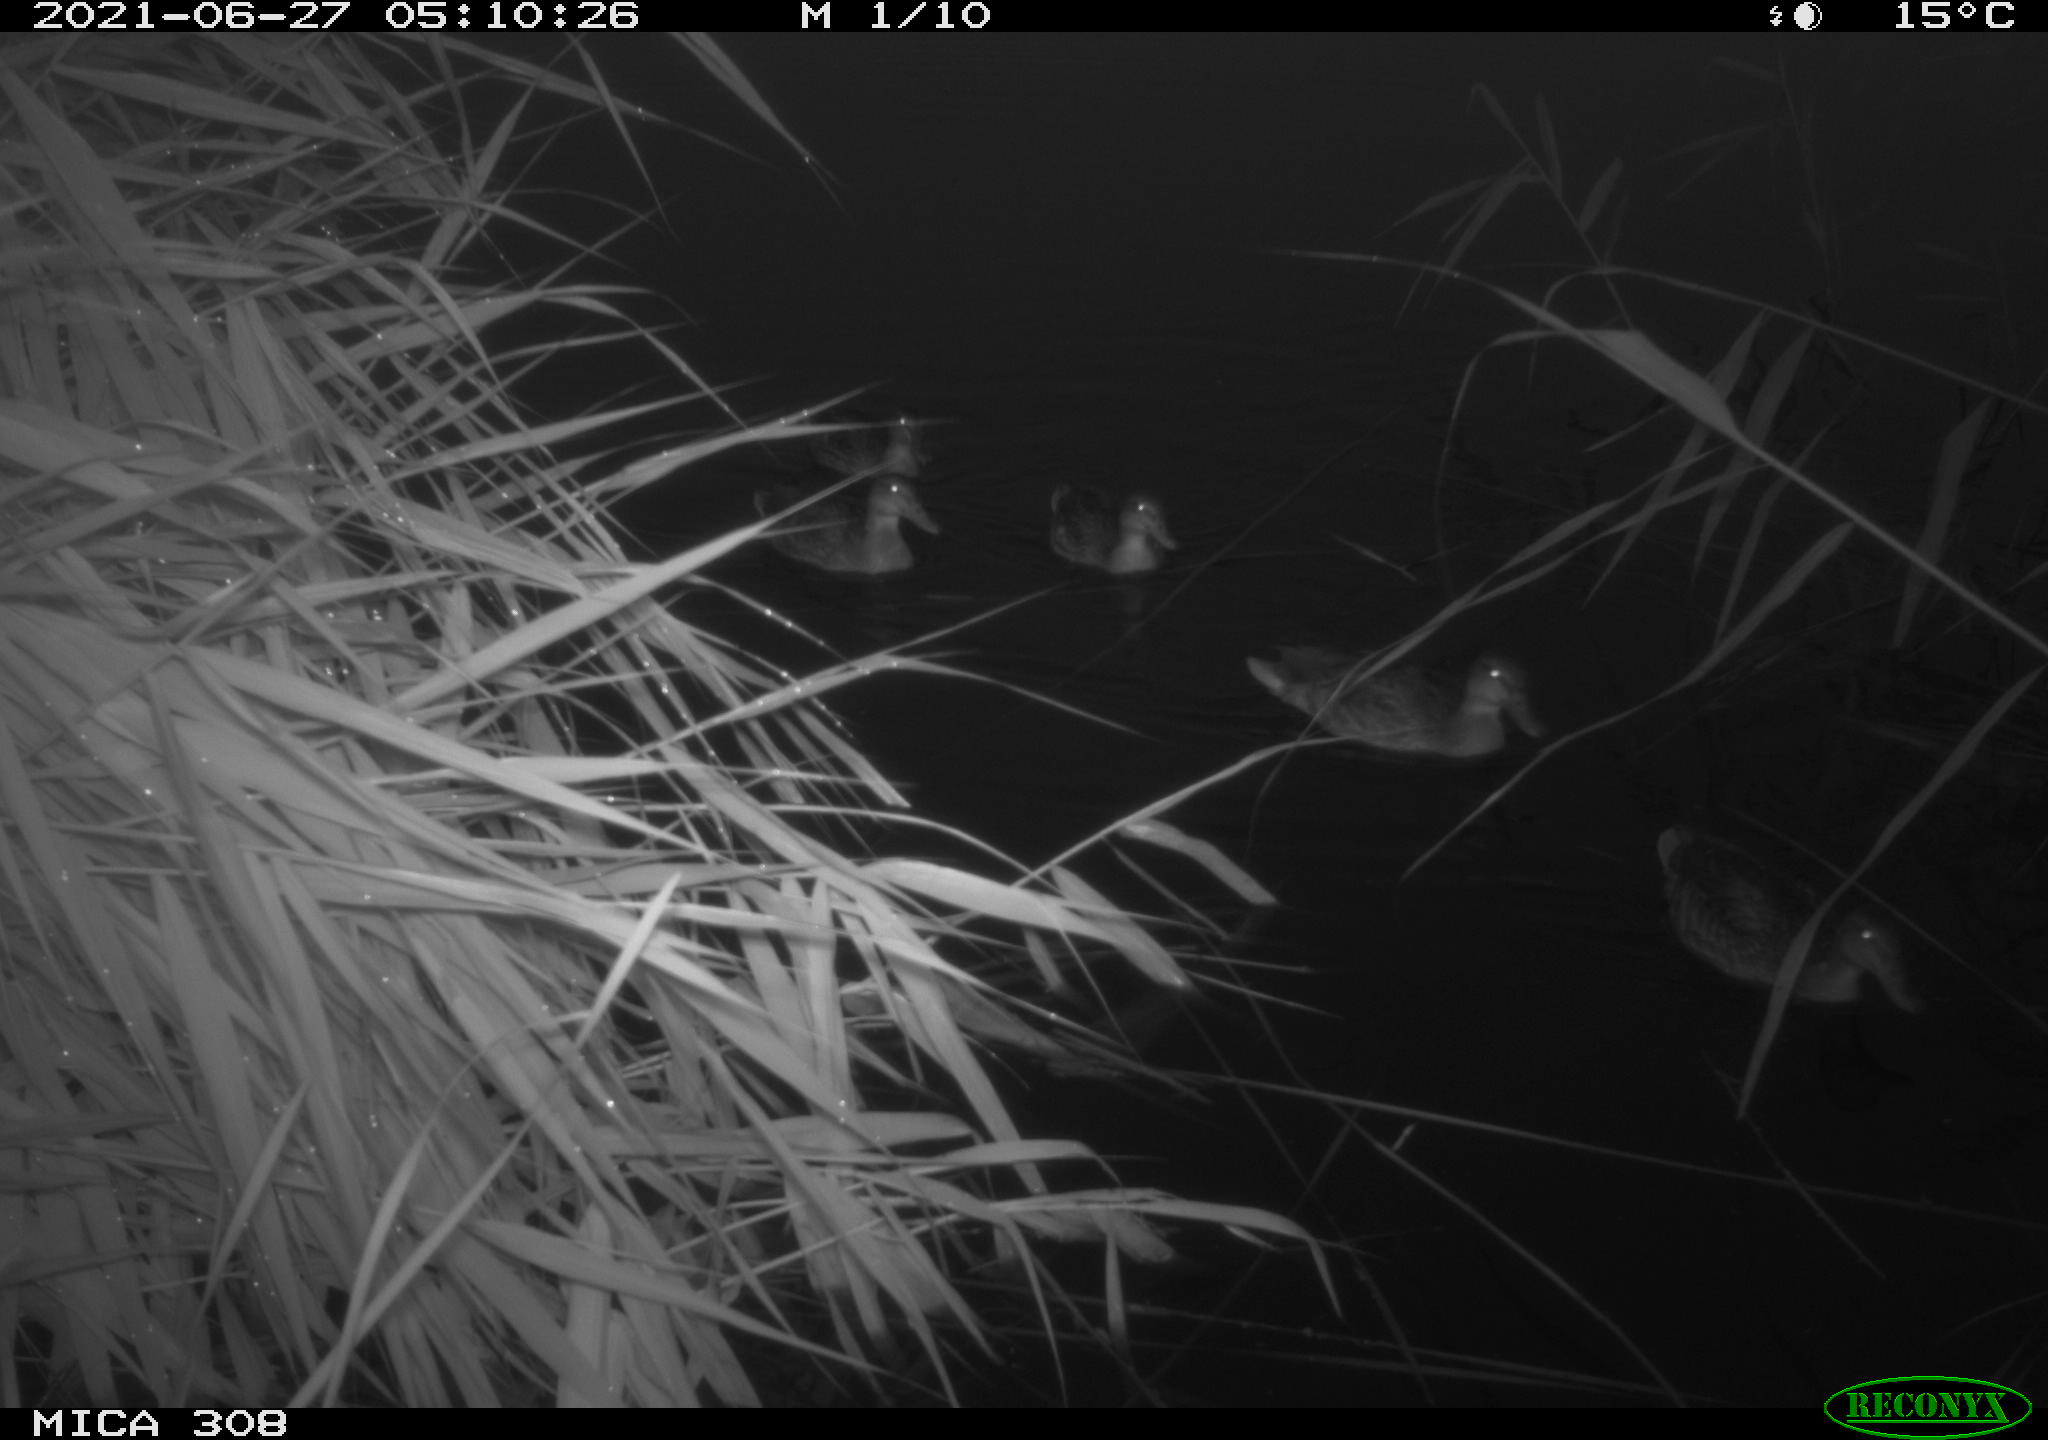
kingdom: Animalia
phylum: Chordata
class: Aves
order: Anseriformes
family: Anatidae
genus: Anas
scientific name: Anas platyrhynchos
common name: Mallard
